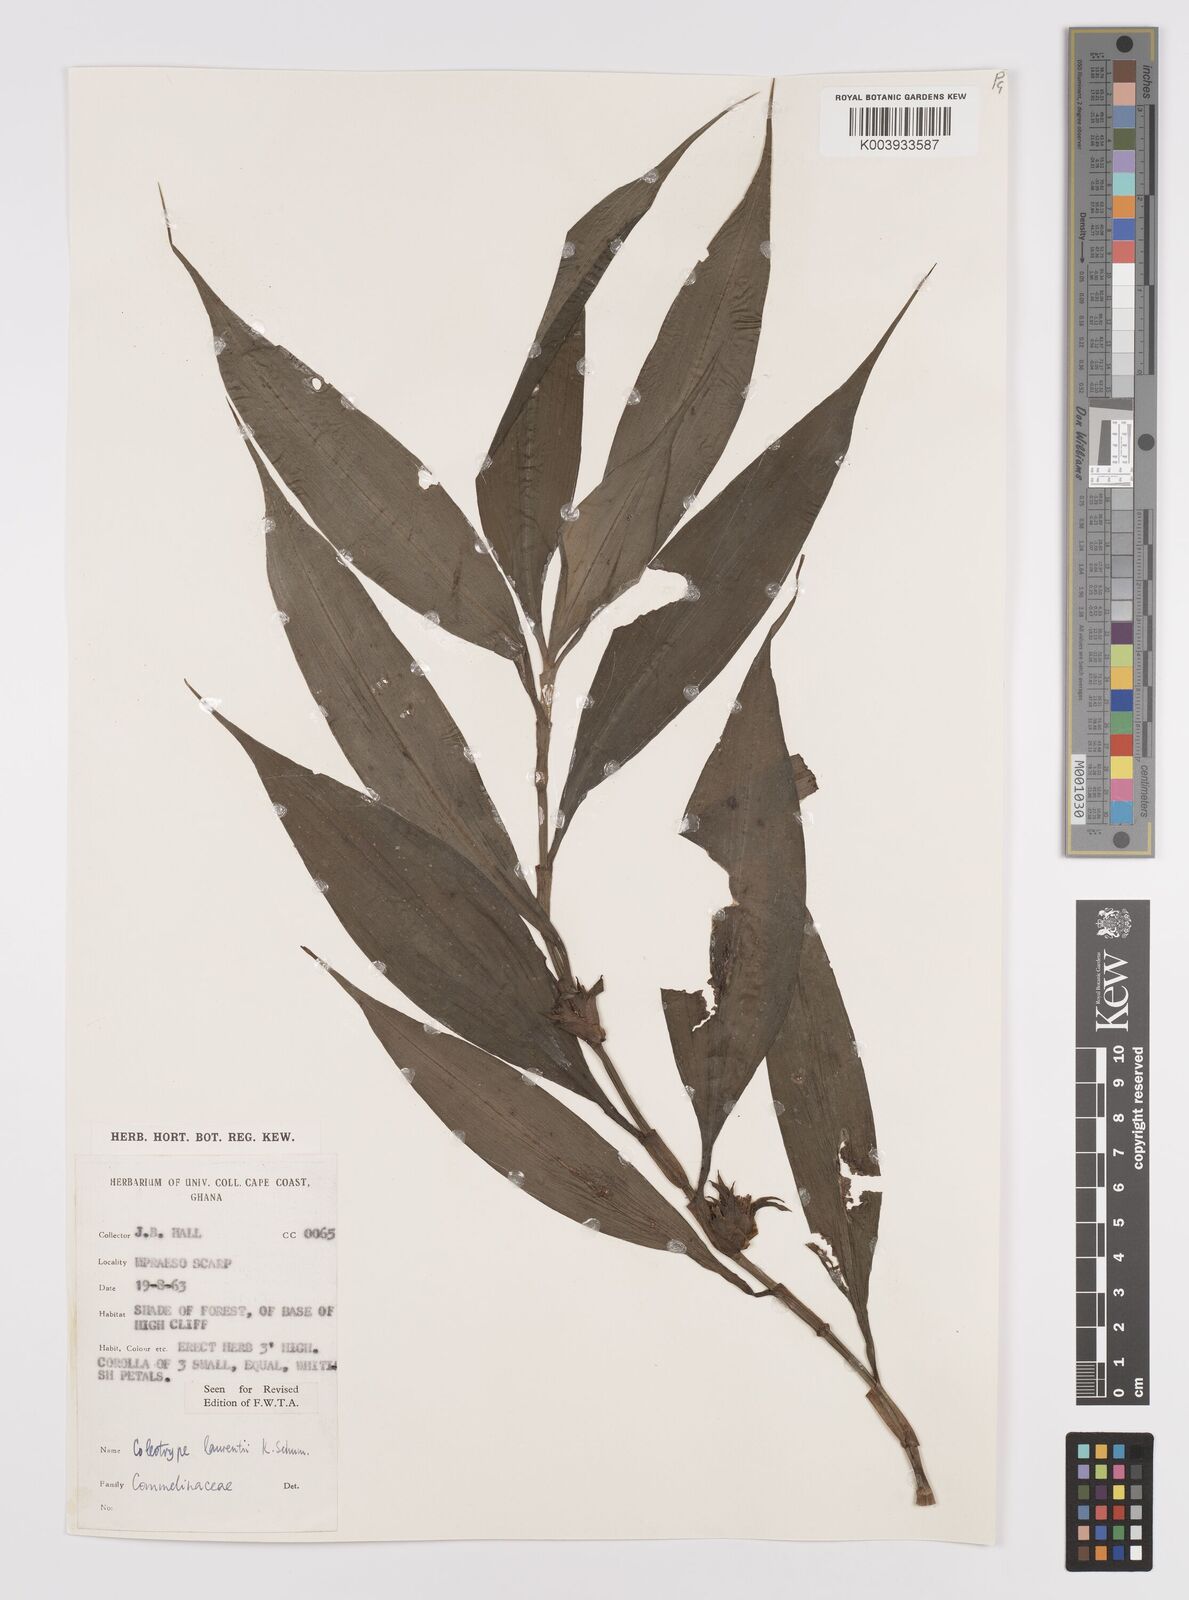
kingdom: Plantae
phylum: Tracheophyta
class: Liliopsida
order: Commelinales
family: Commelinaceae
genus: Coleotrype
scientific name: Coleotrype laurentii
